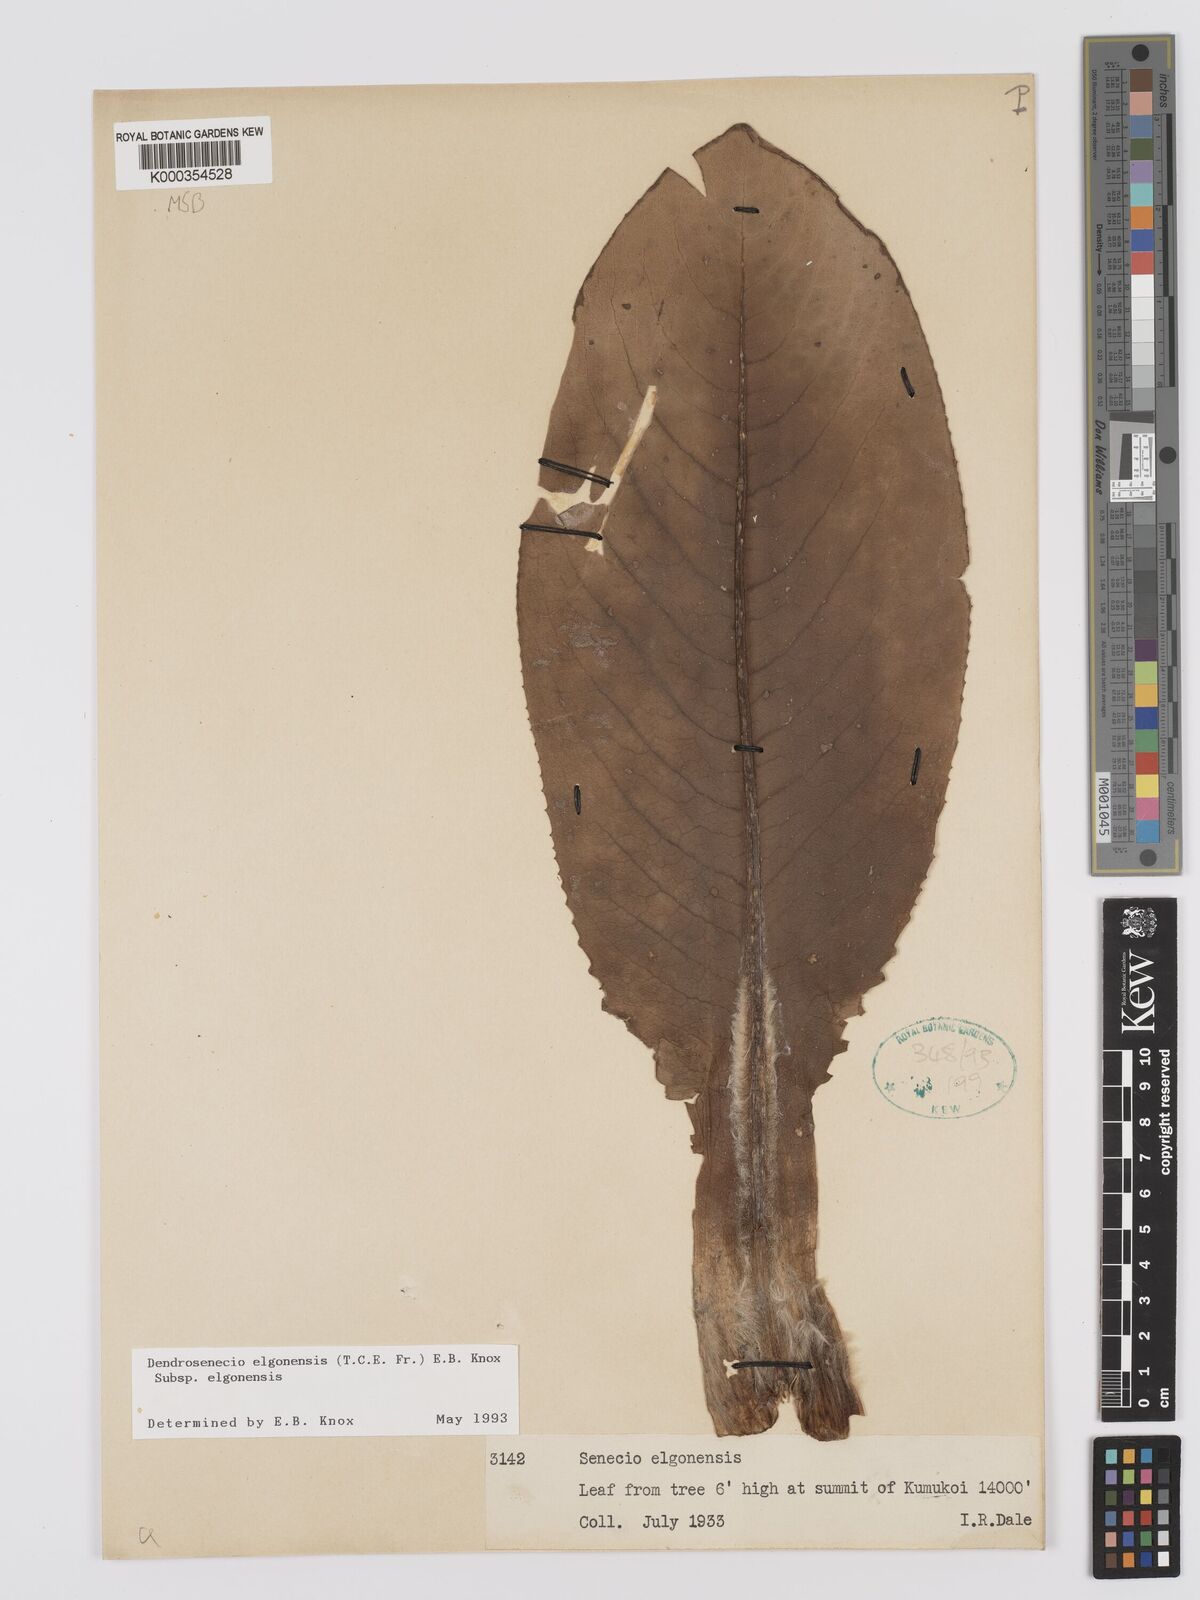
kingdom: Plantae
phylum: Tracheophyta
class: Magnoliopsida
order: Asterales
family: Asteraceae
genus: Dendrosenecio
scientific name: Dendrosenecio elgonensis
